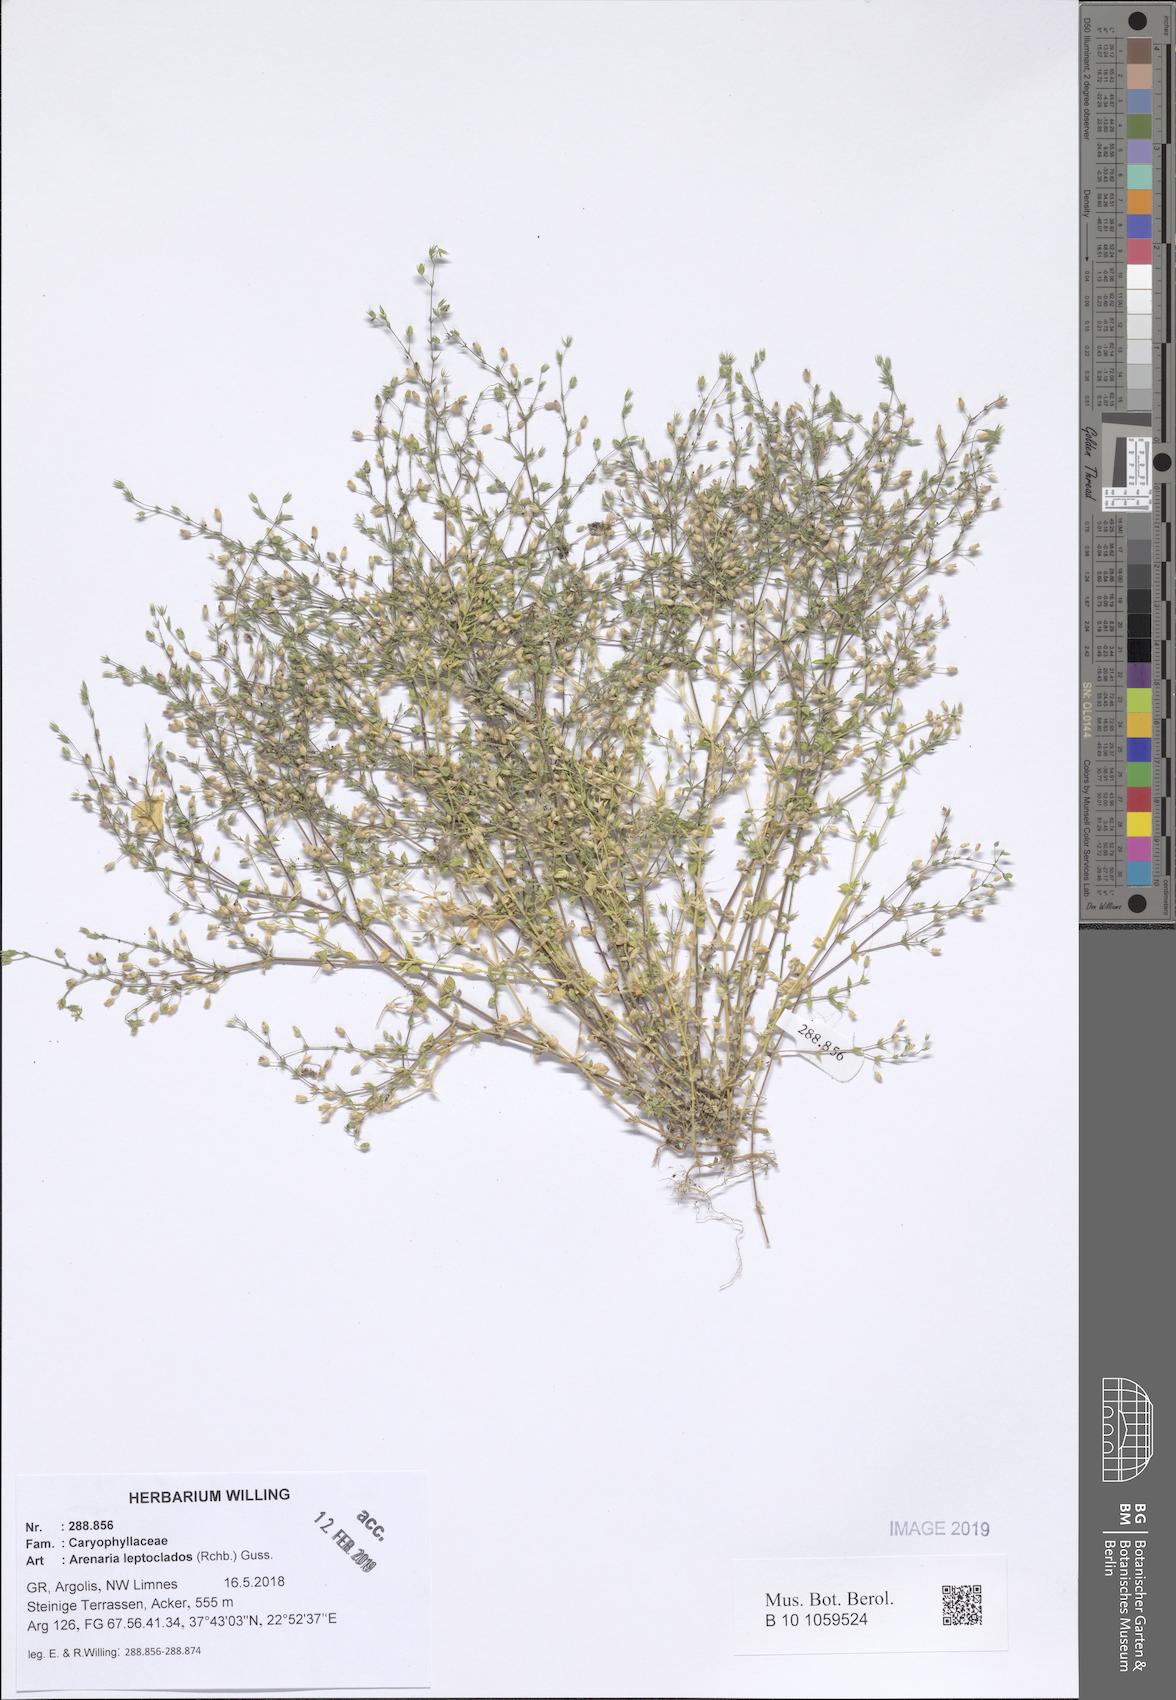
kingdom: Plantae
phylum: Tracheophyta
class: Magnoliopsida
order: Caryophyllales
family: Caryophyllaceae
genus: Arenaria
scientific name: Arenaria leptoclados
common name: Thyme-leaved sandwort
